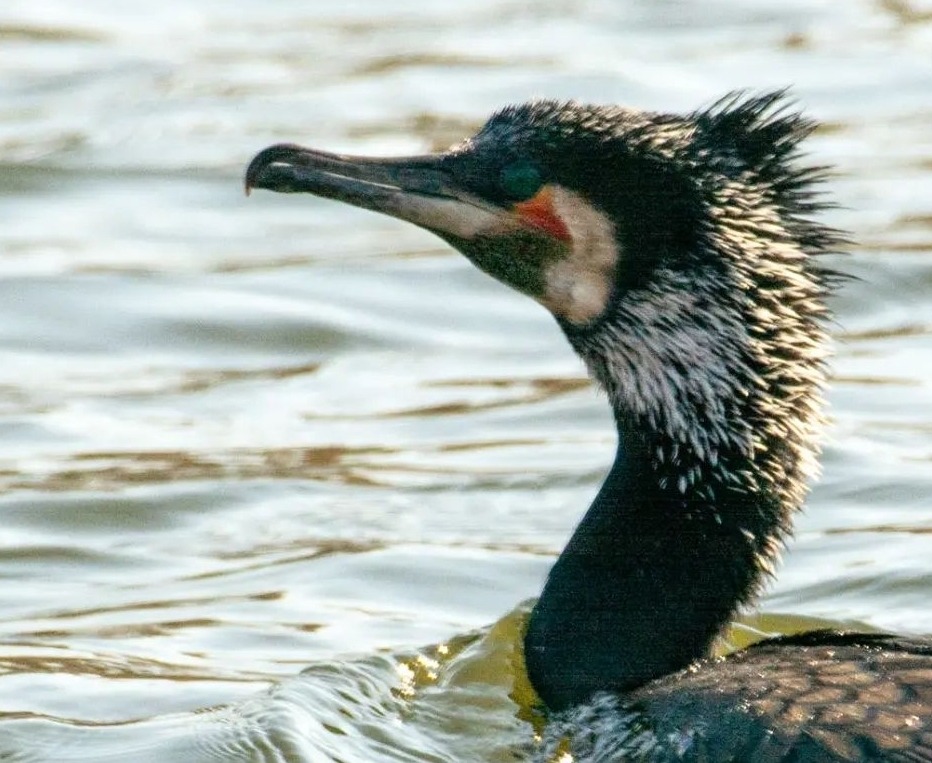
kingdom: Animalia
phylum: Chordata
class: Aves
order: Suliformes
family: Phalacrocoracidae
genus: Phalacrocorax
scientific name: Phalacrocorax carbo
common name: Skarv
